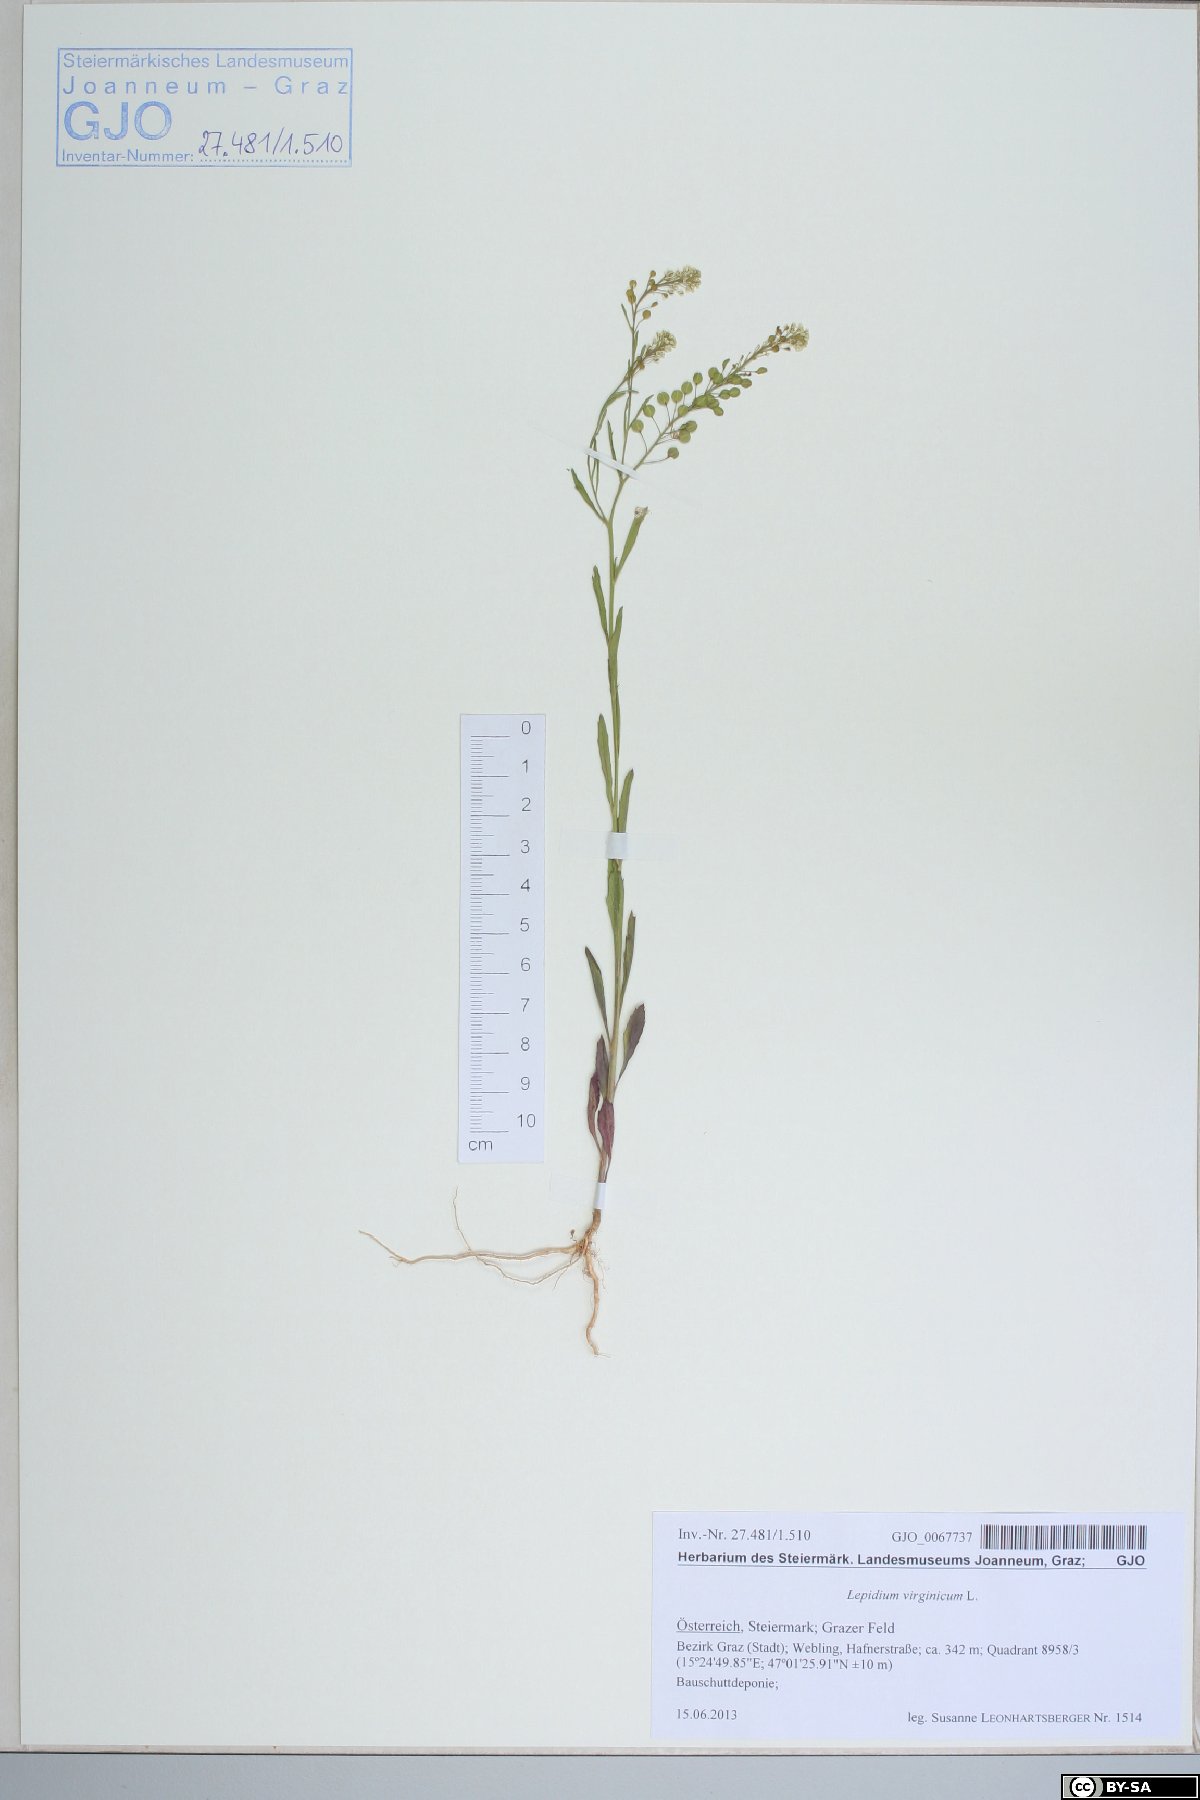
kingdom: Plantae
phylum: Tracheophyta
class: Magnoliopsida
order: Brassicales
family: Brassicaceae
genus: Lepidium
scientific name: Lepidium virginicum
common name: Least pepperwort
